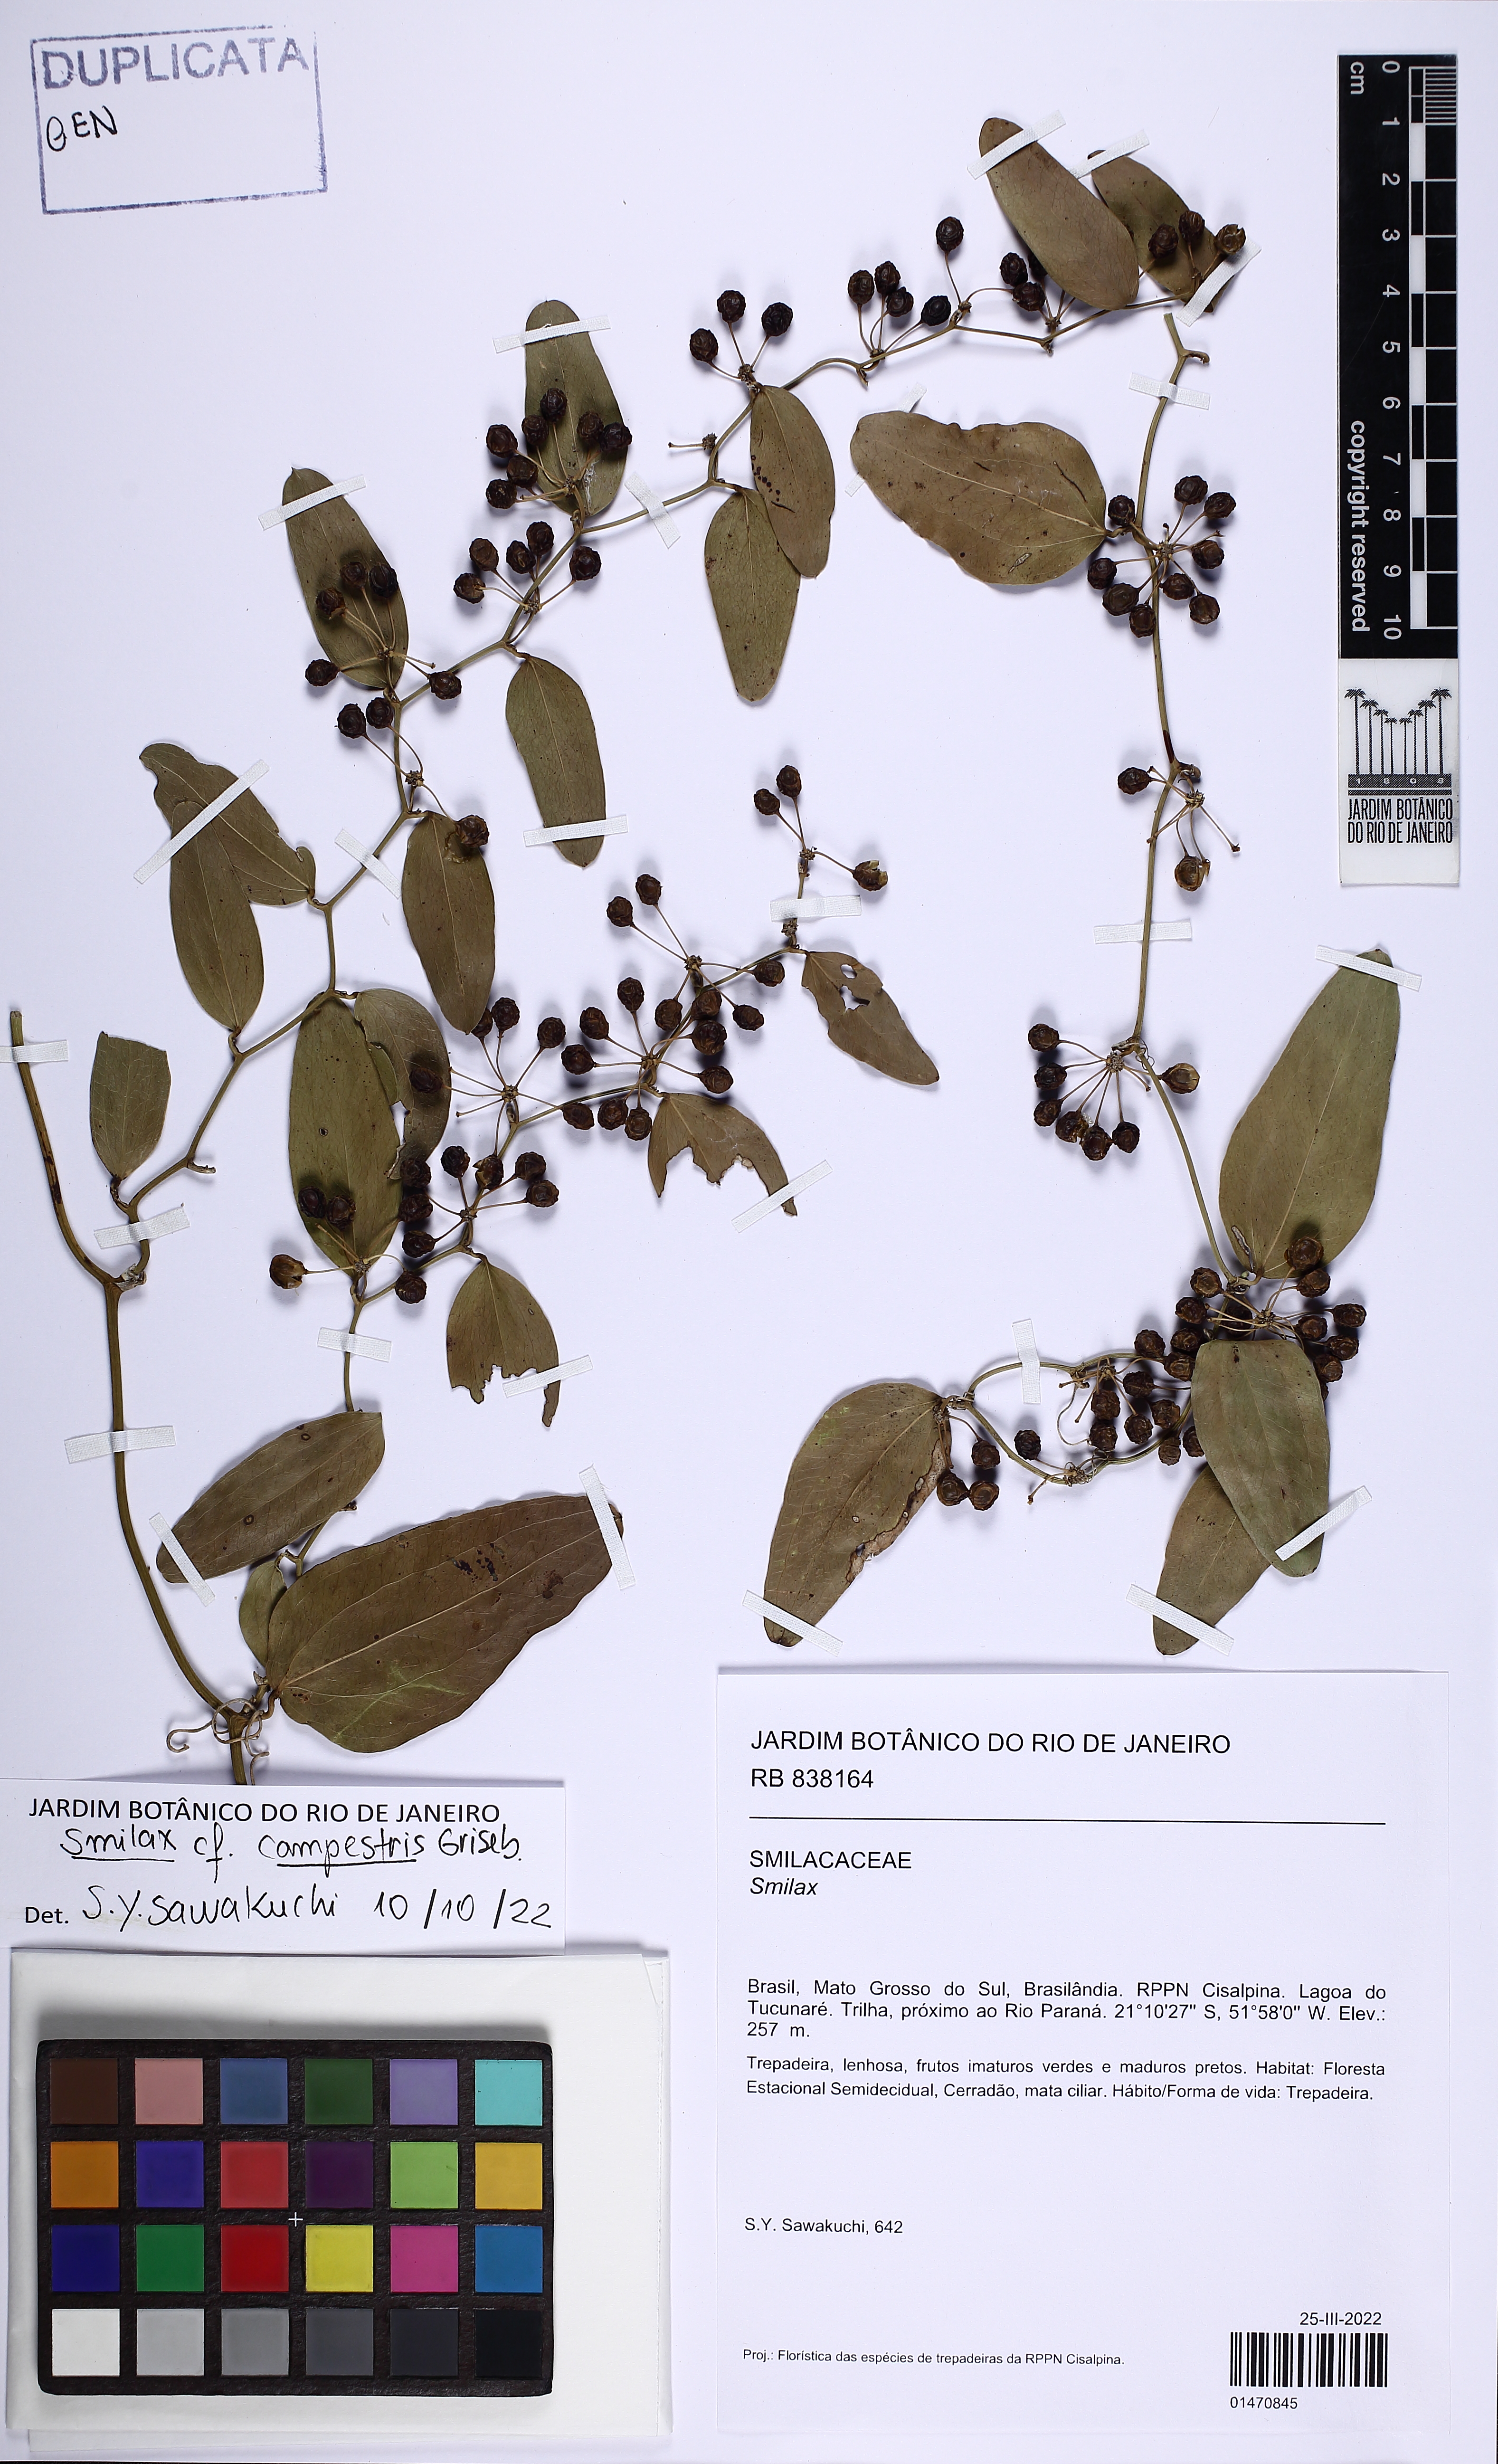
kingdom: Plantae
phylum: Tracheophyta
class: Liliopsida
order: Liliales
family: Smilacaceae
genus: Smilax
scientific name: Smilax campestris
